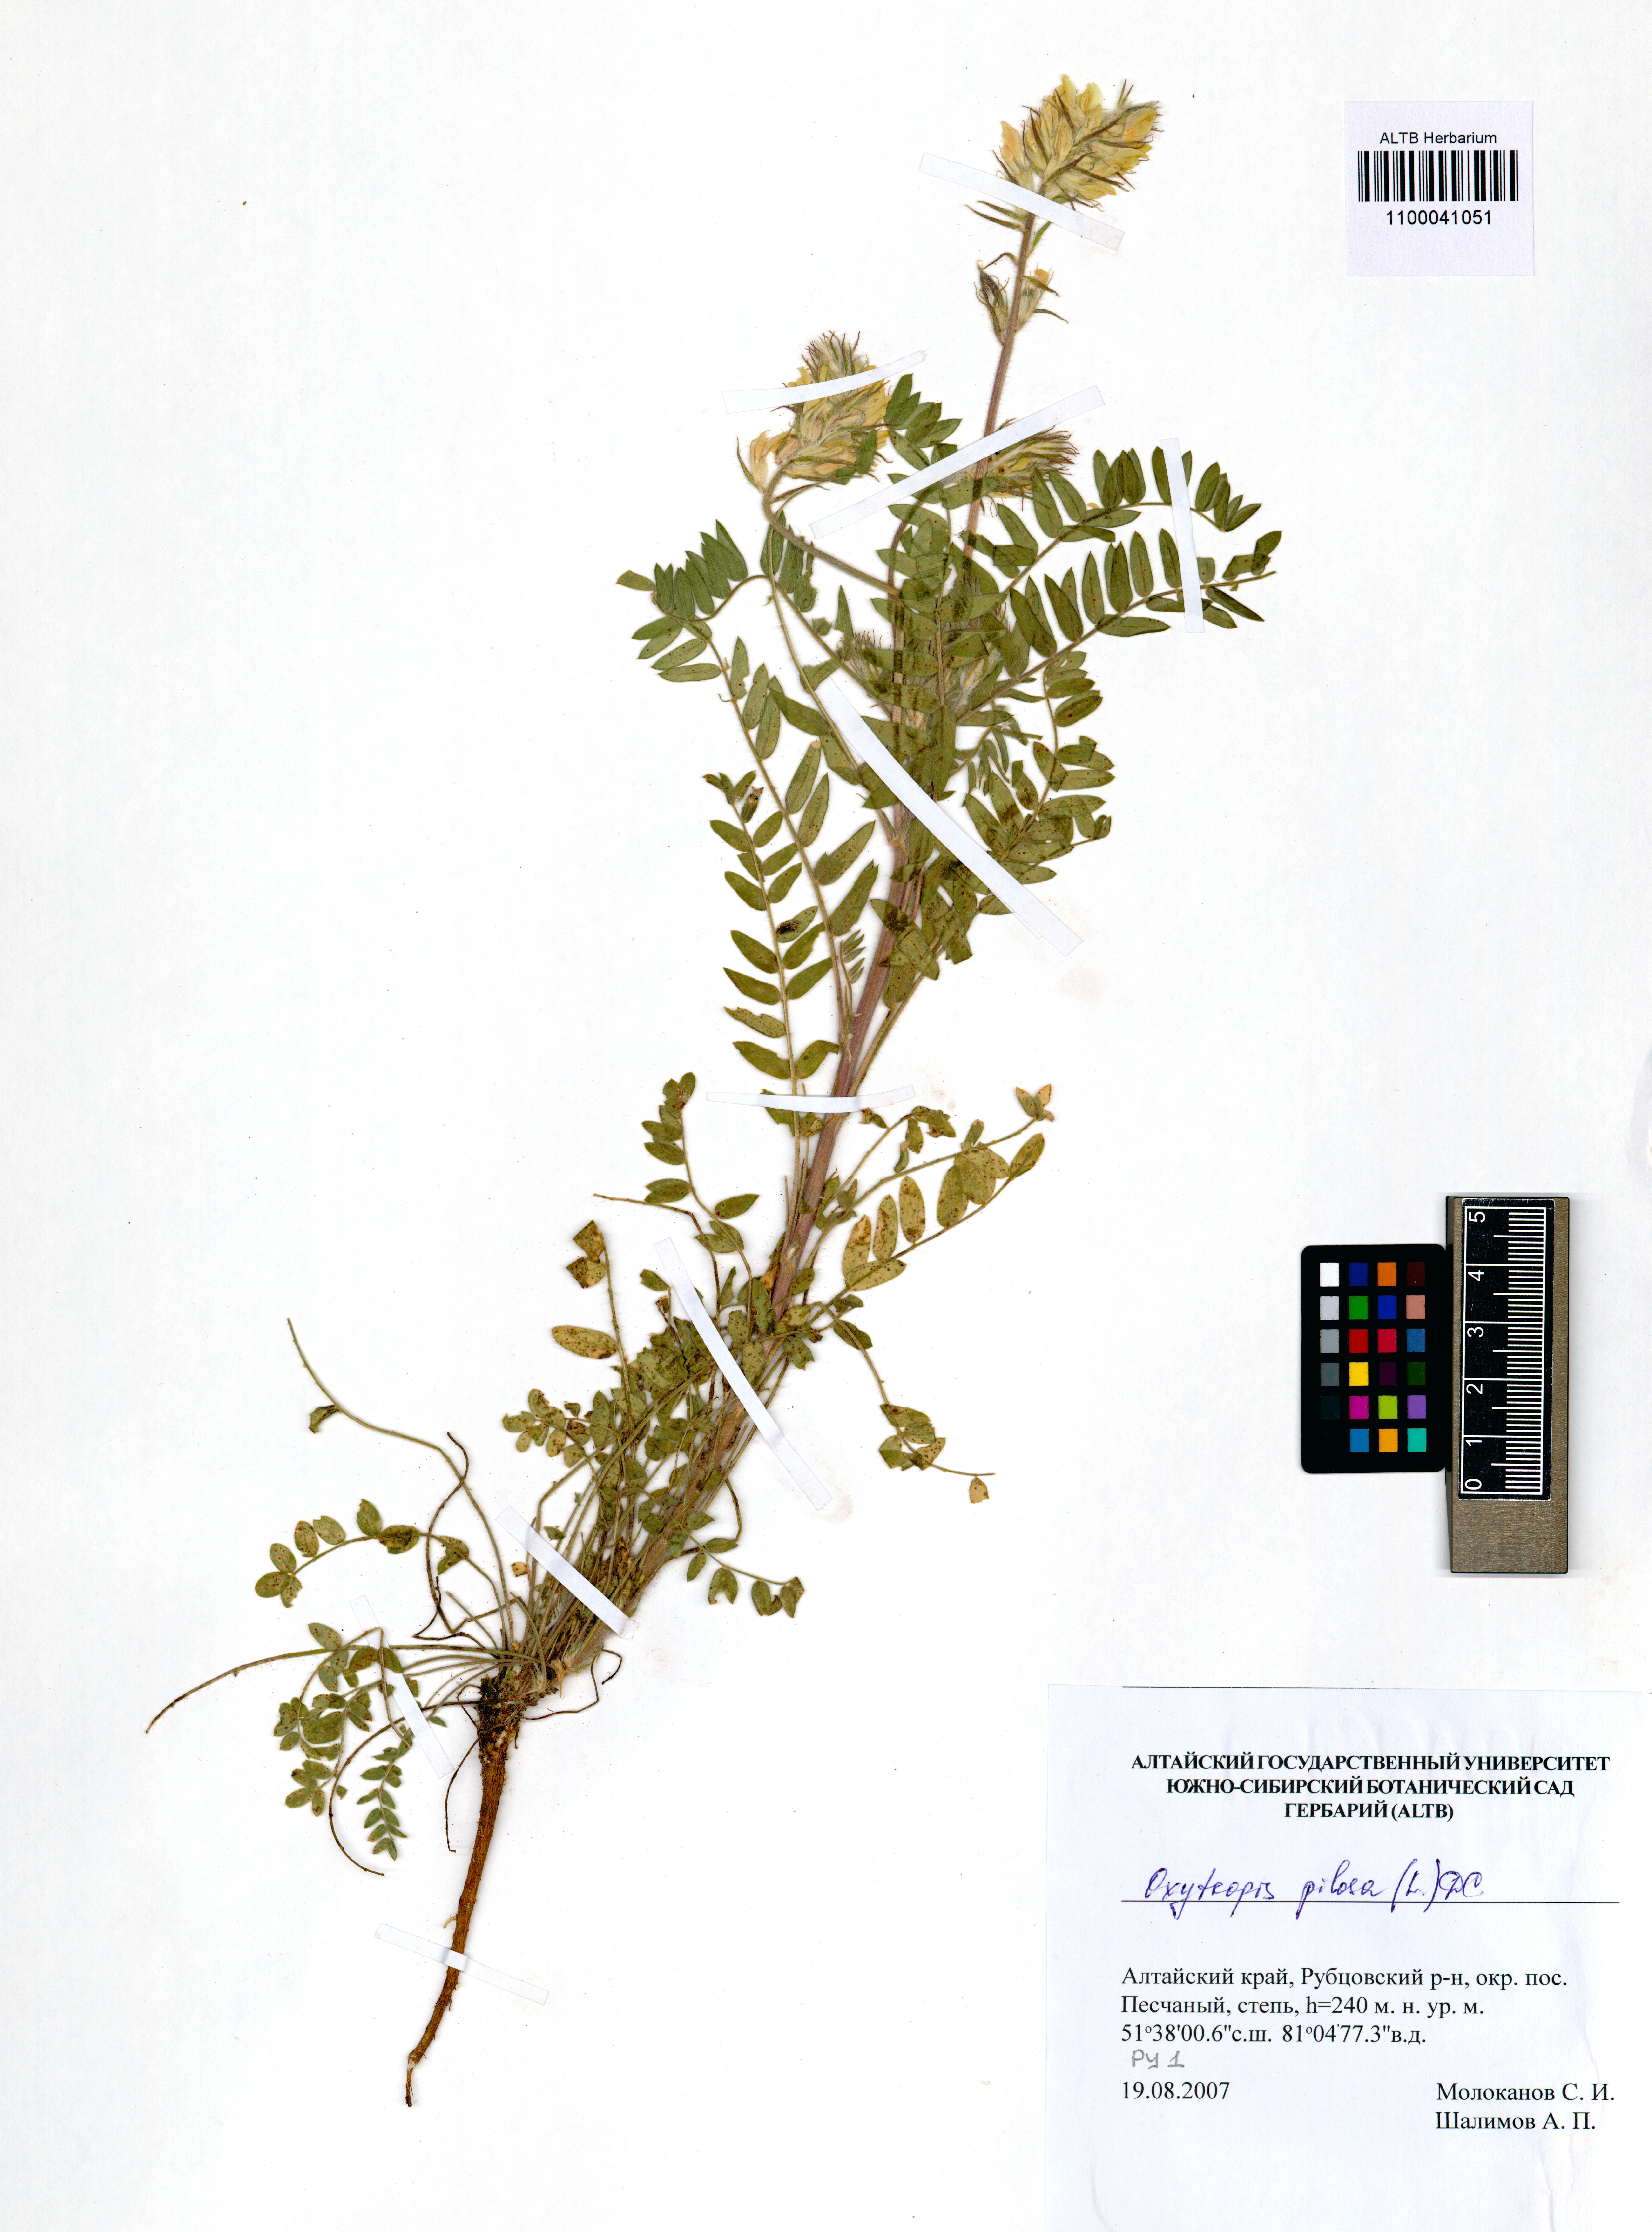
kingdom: Plantae
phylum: Tracheophyta
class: Magnoliopsida
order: Fabales
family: Fabaceae
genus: Oxytropis
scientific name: Oxytropis pilosa
